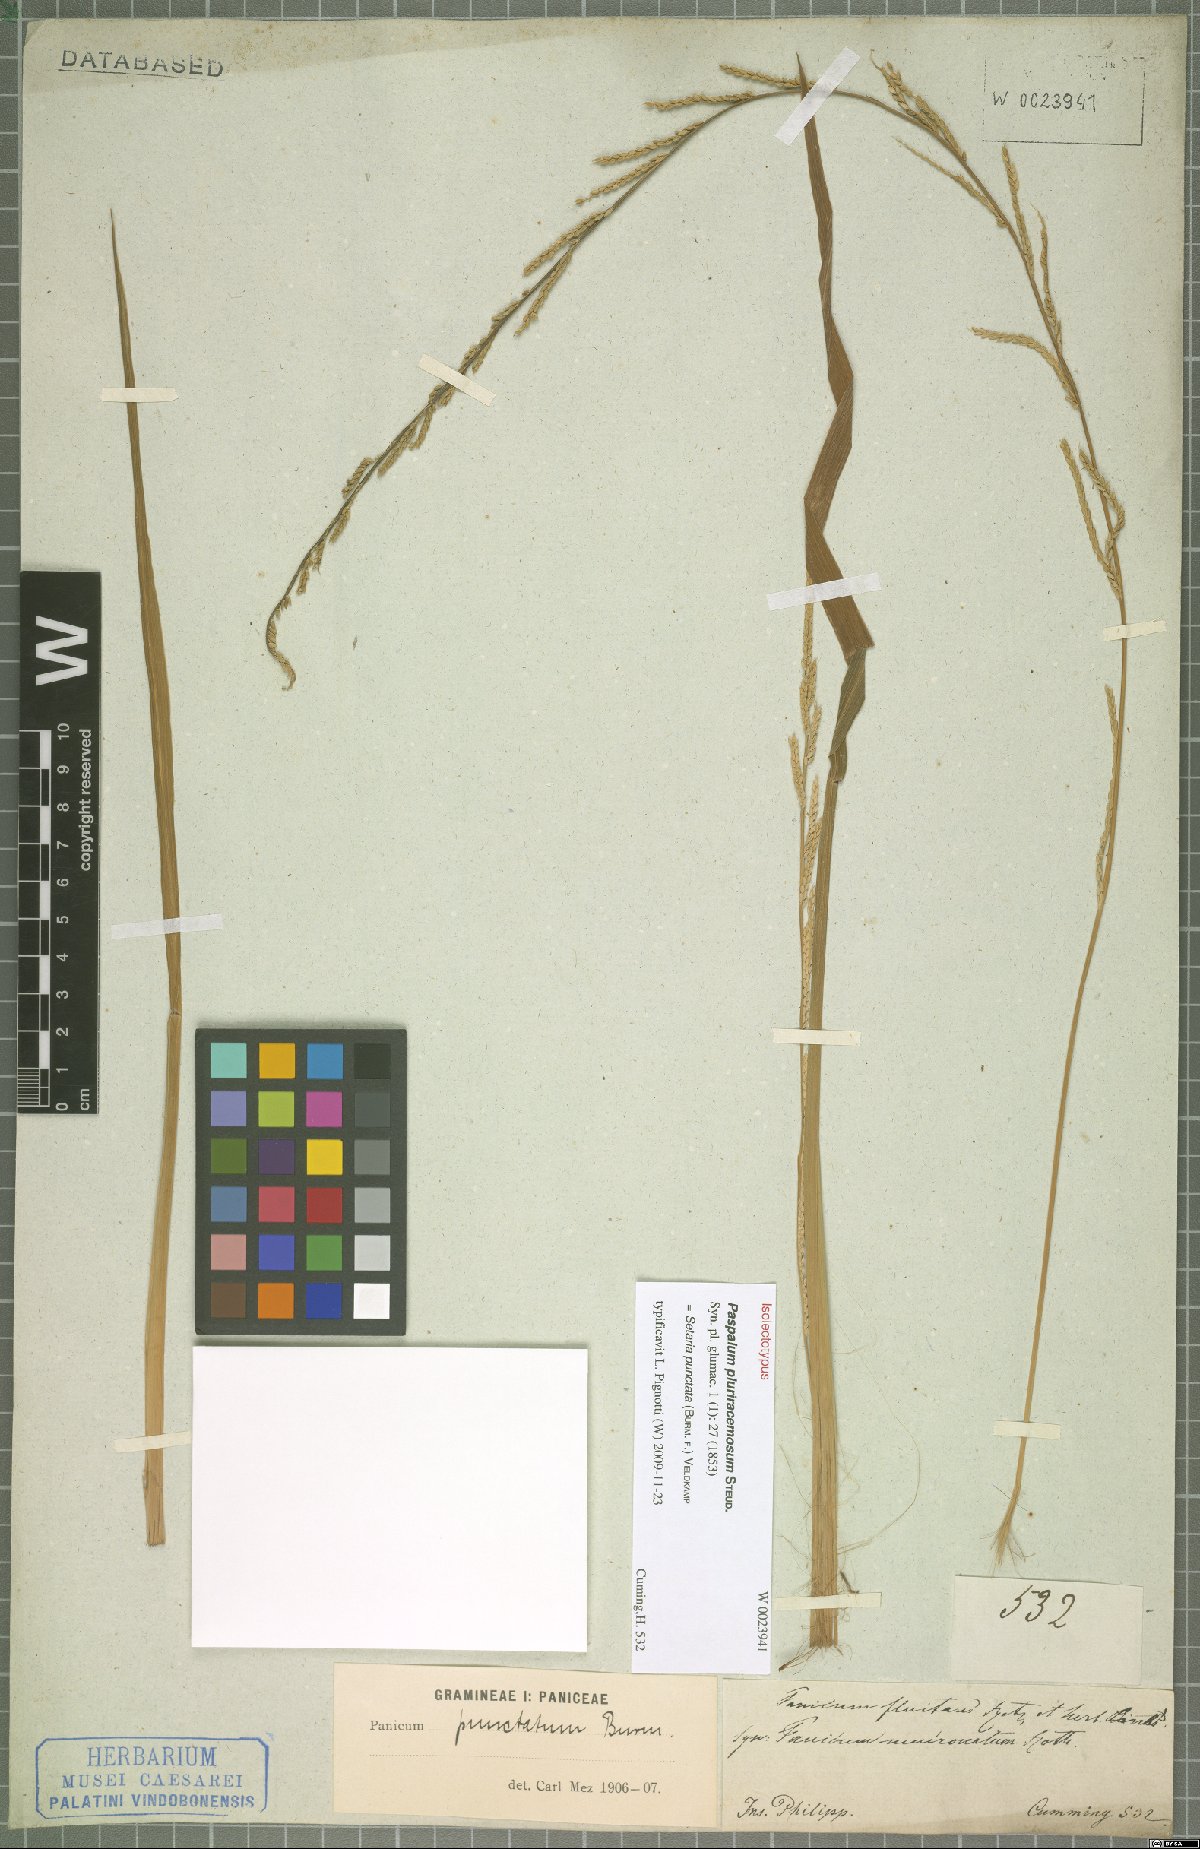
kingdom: Plantae
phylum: Tracheophyta
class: Liliopsida
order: Poales
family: Poaceae
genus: Setaria
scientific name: Setaria punctata
